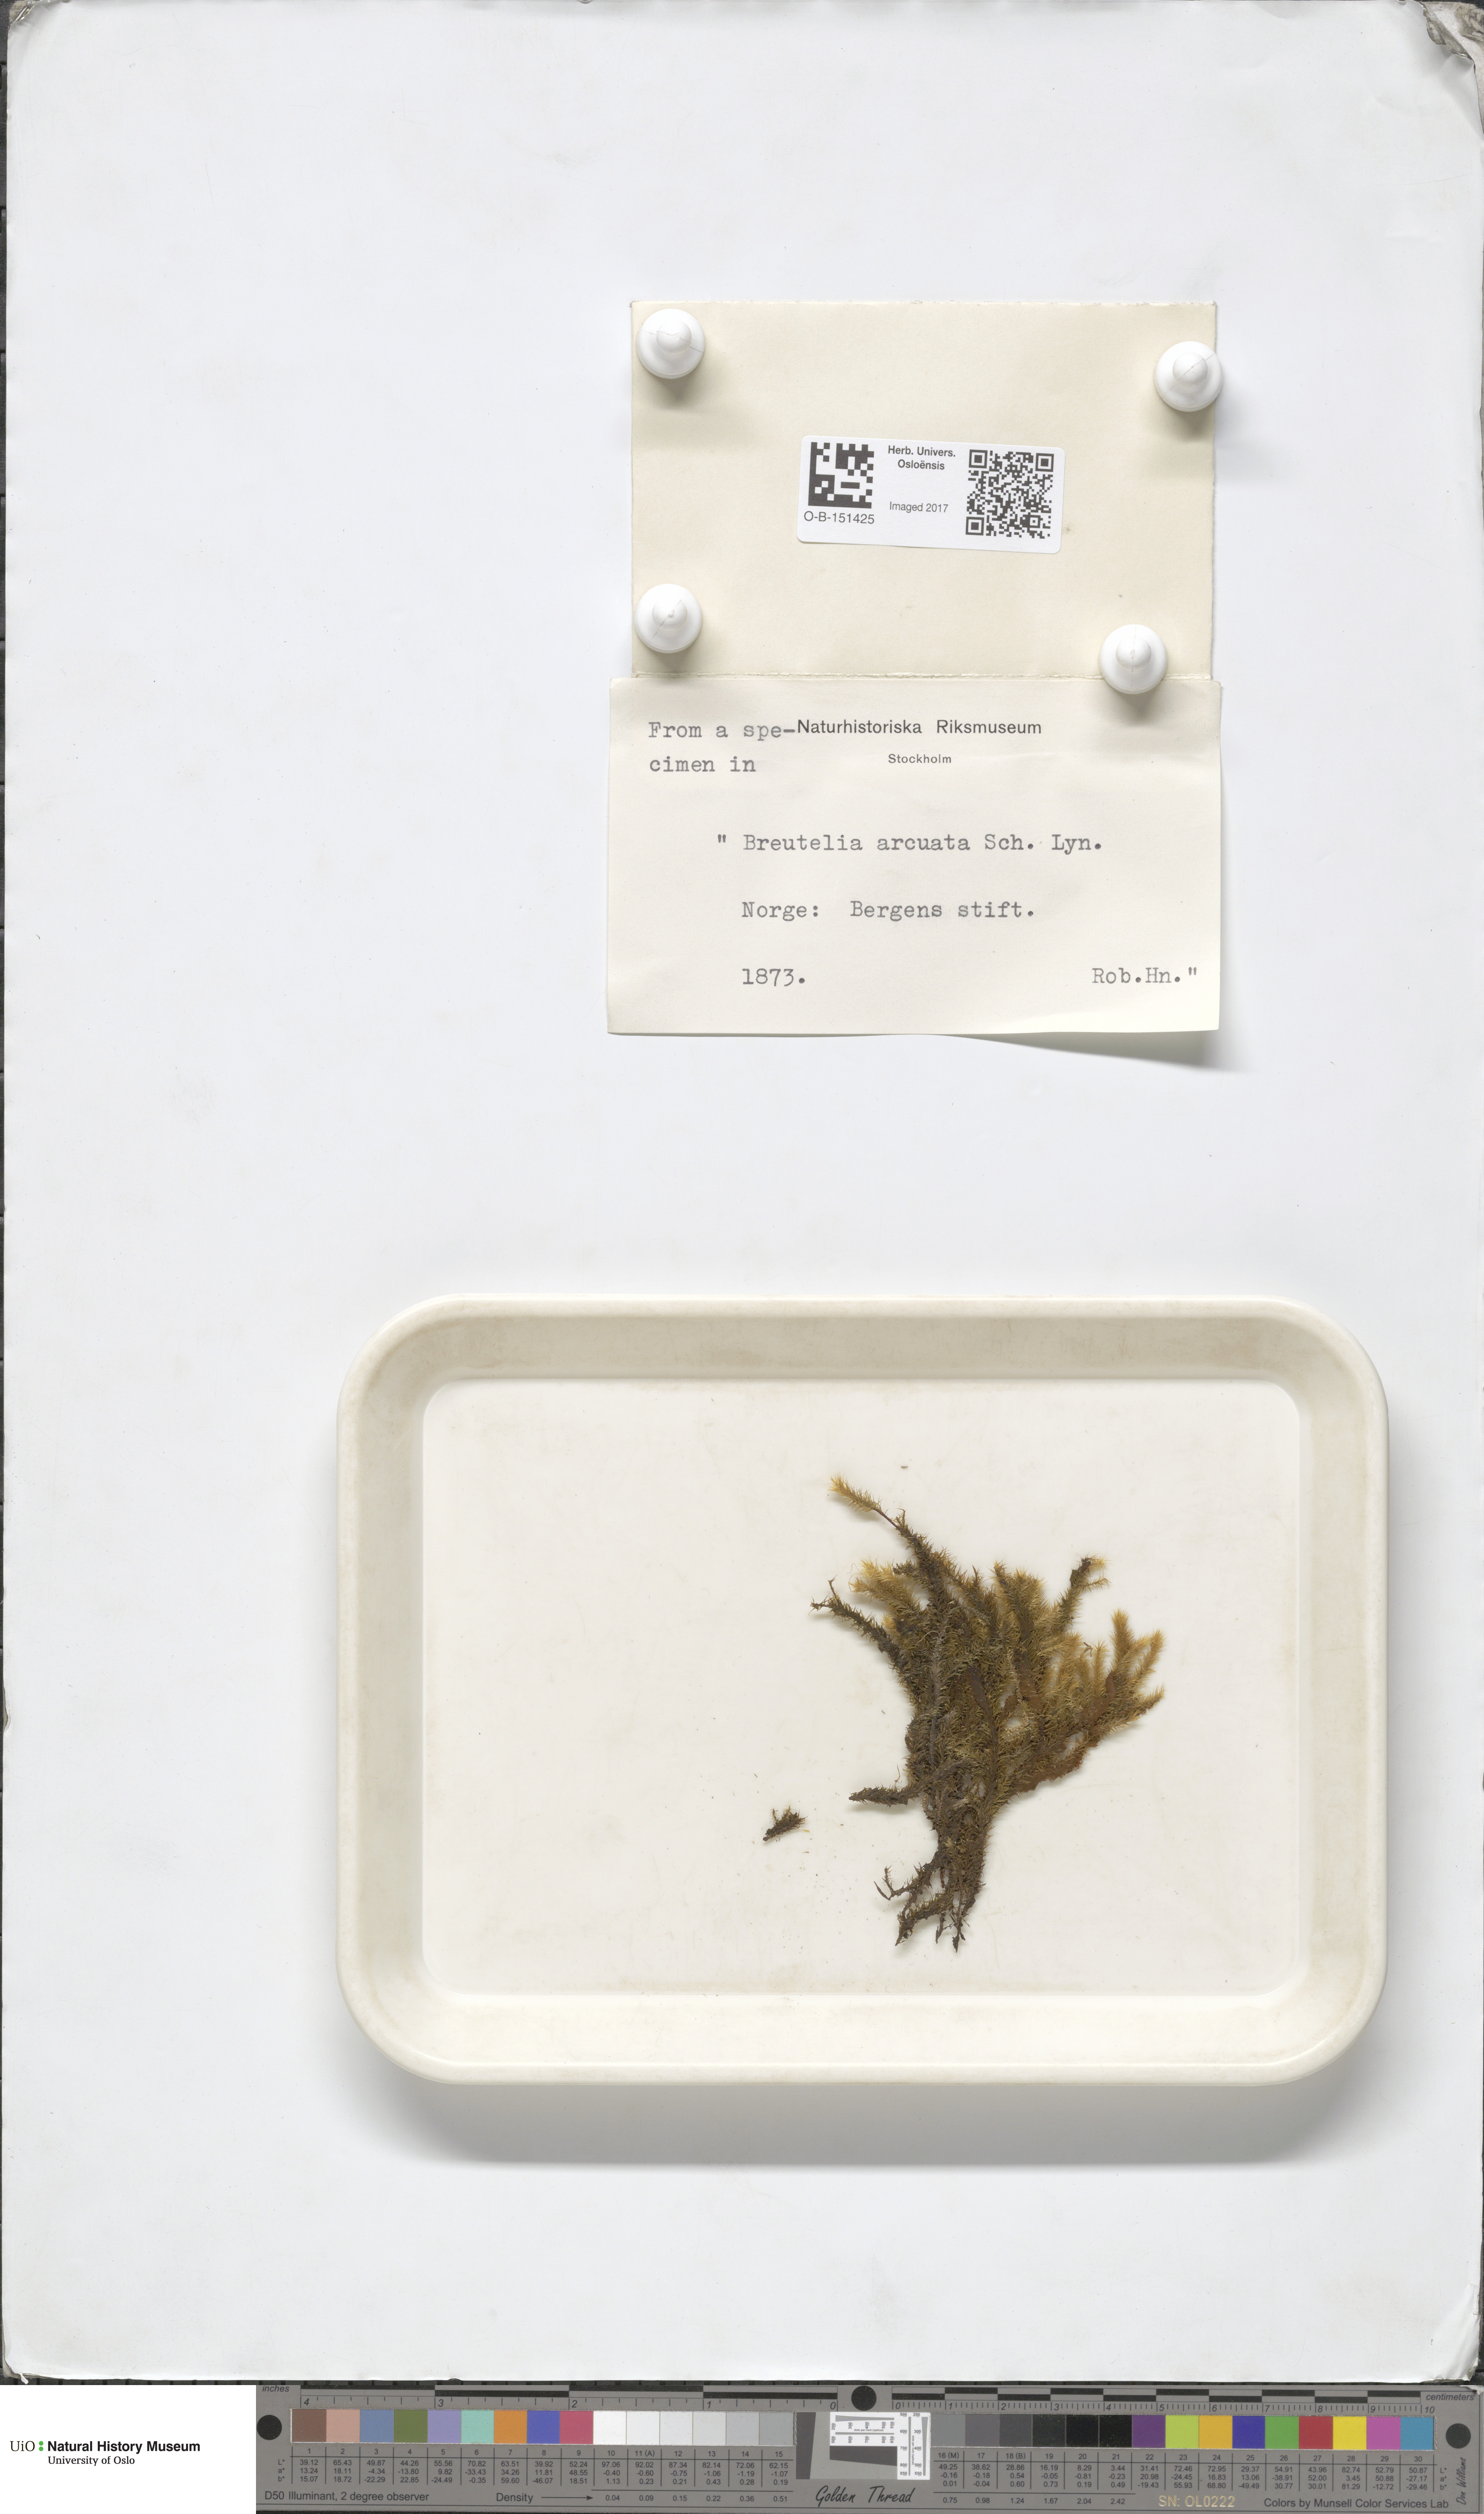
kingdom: Plantae
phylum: Bryophyta
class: Bryopsida
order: Bartramiales
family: Bartramiaceae
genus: Breutelia
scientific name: Breutelia chrysocoma
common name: Bottle-brush moss
